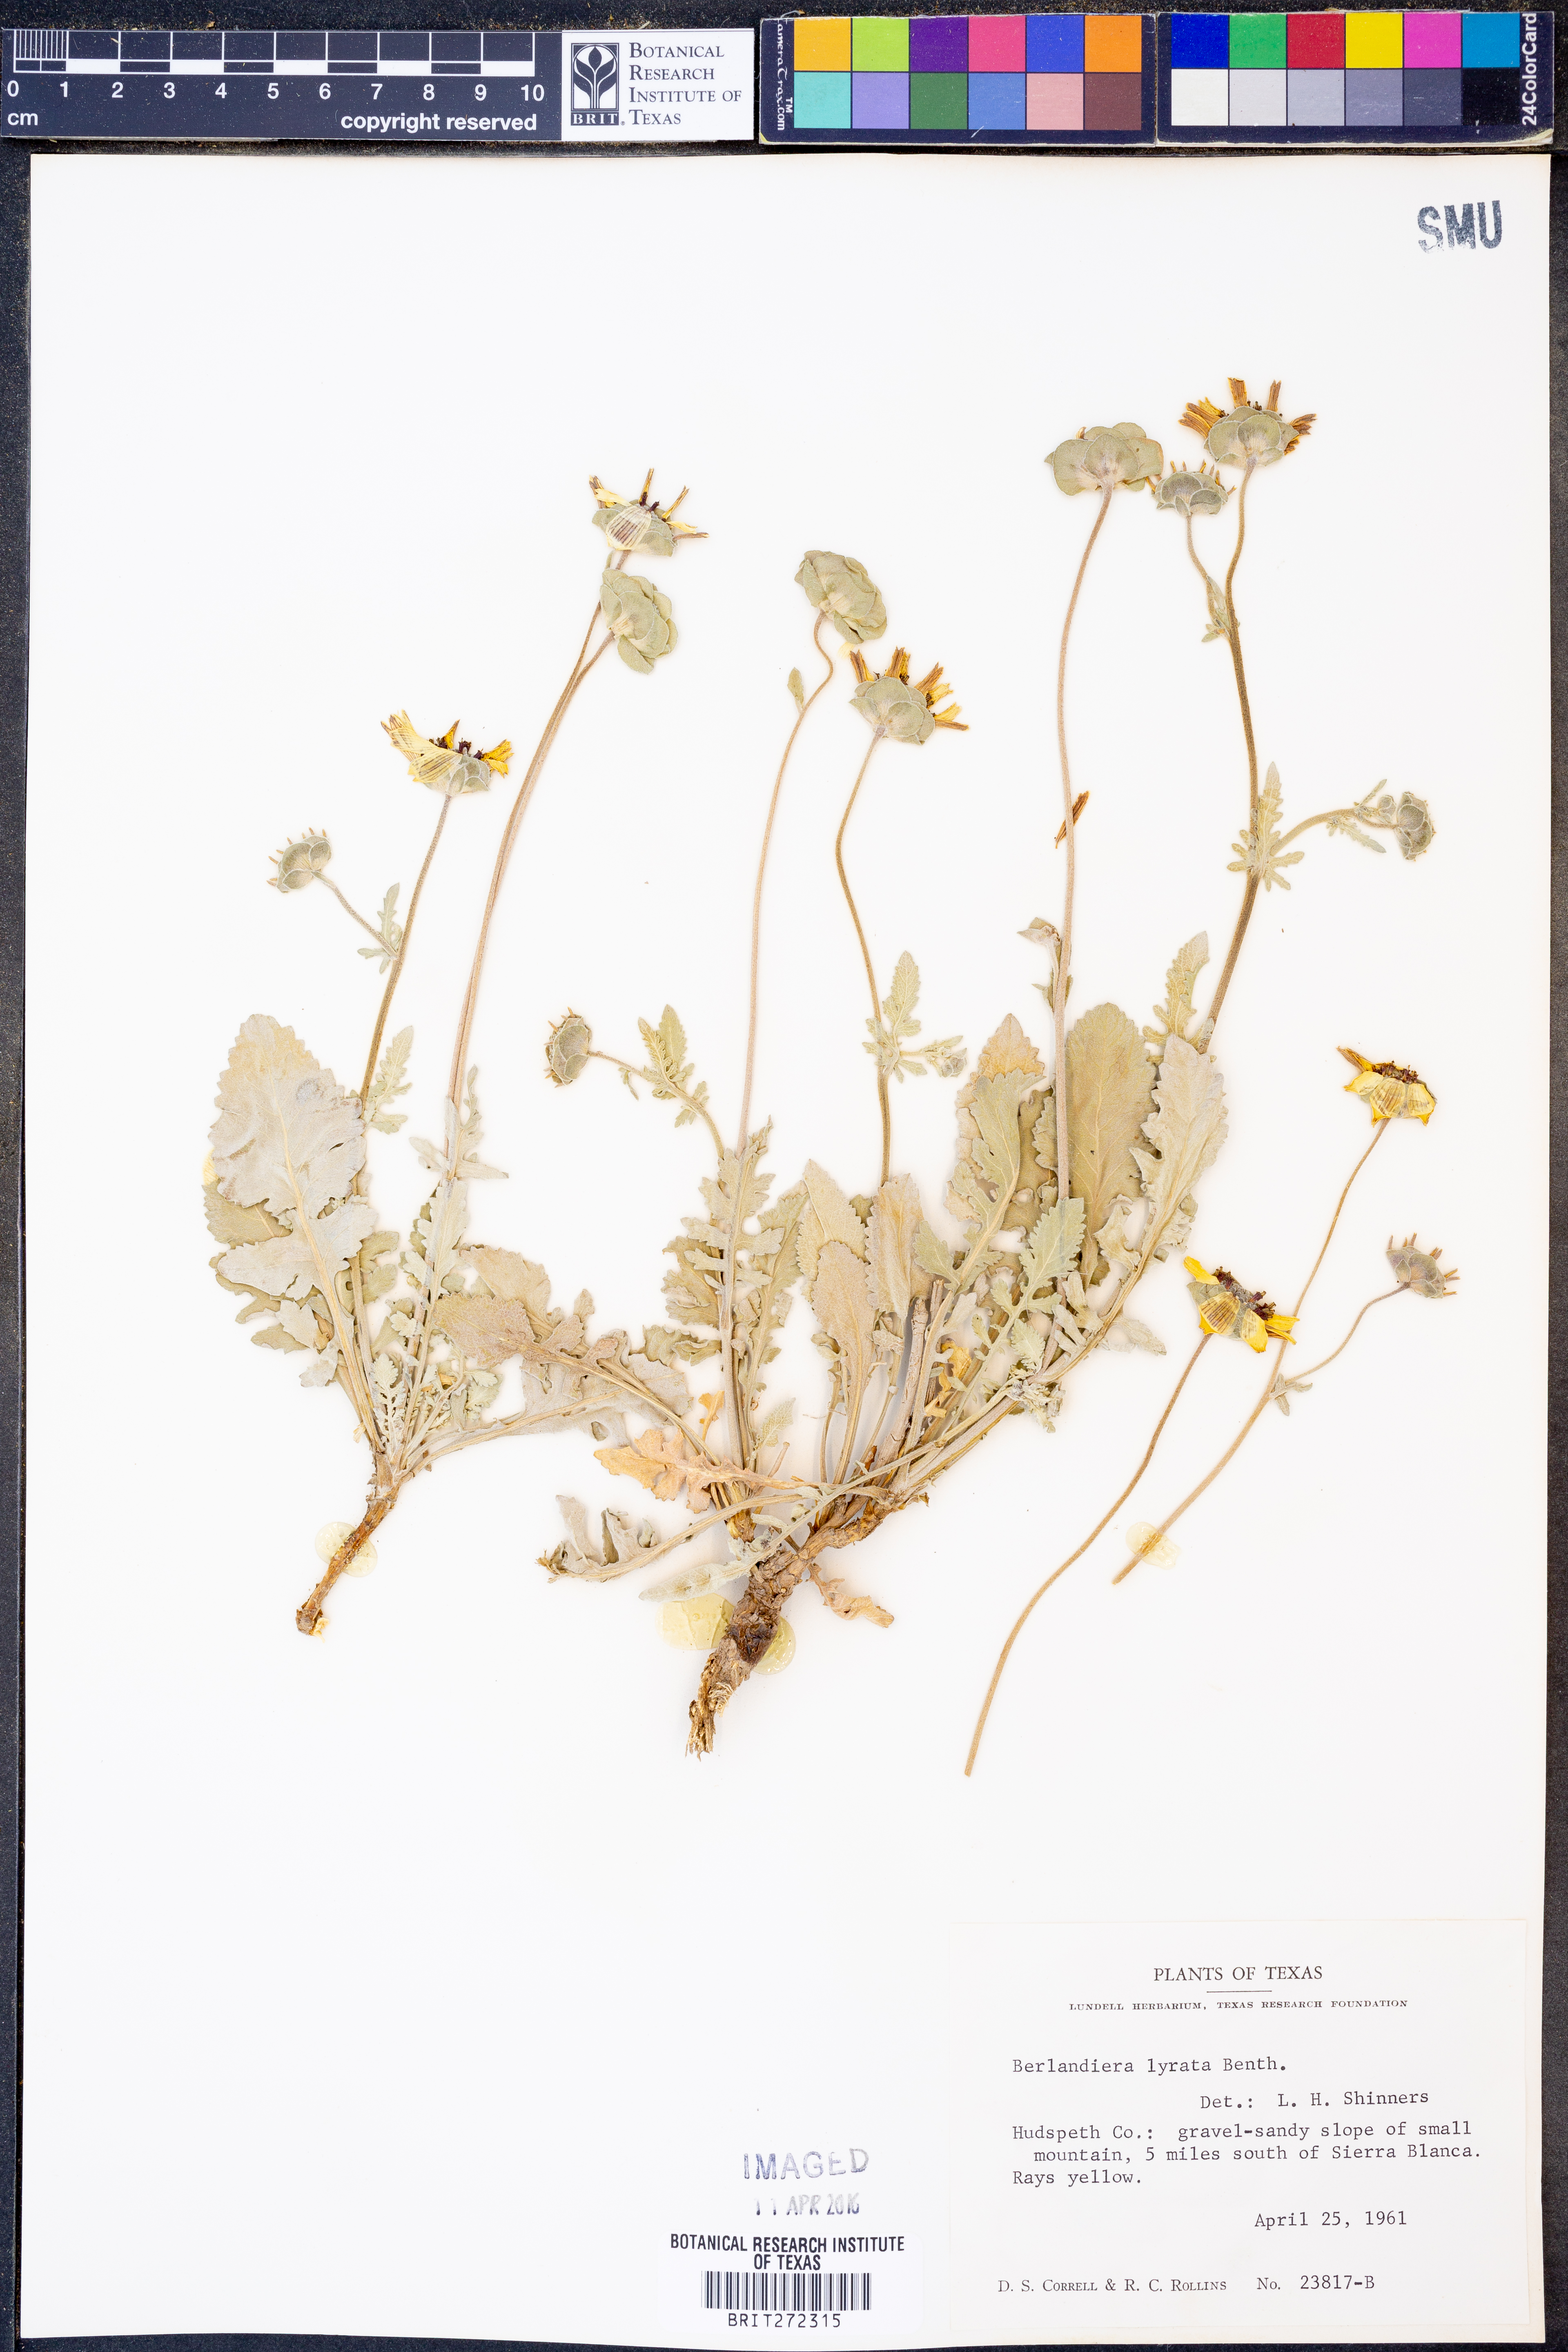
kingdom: Plantae
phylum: Tracheophyta
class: Magnoliopsida
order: Asterales
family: Asteraceae
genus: Berlandiera
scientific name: Berlandiera lyrata
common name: Chocolate-flower
